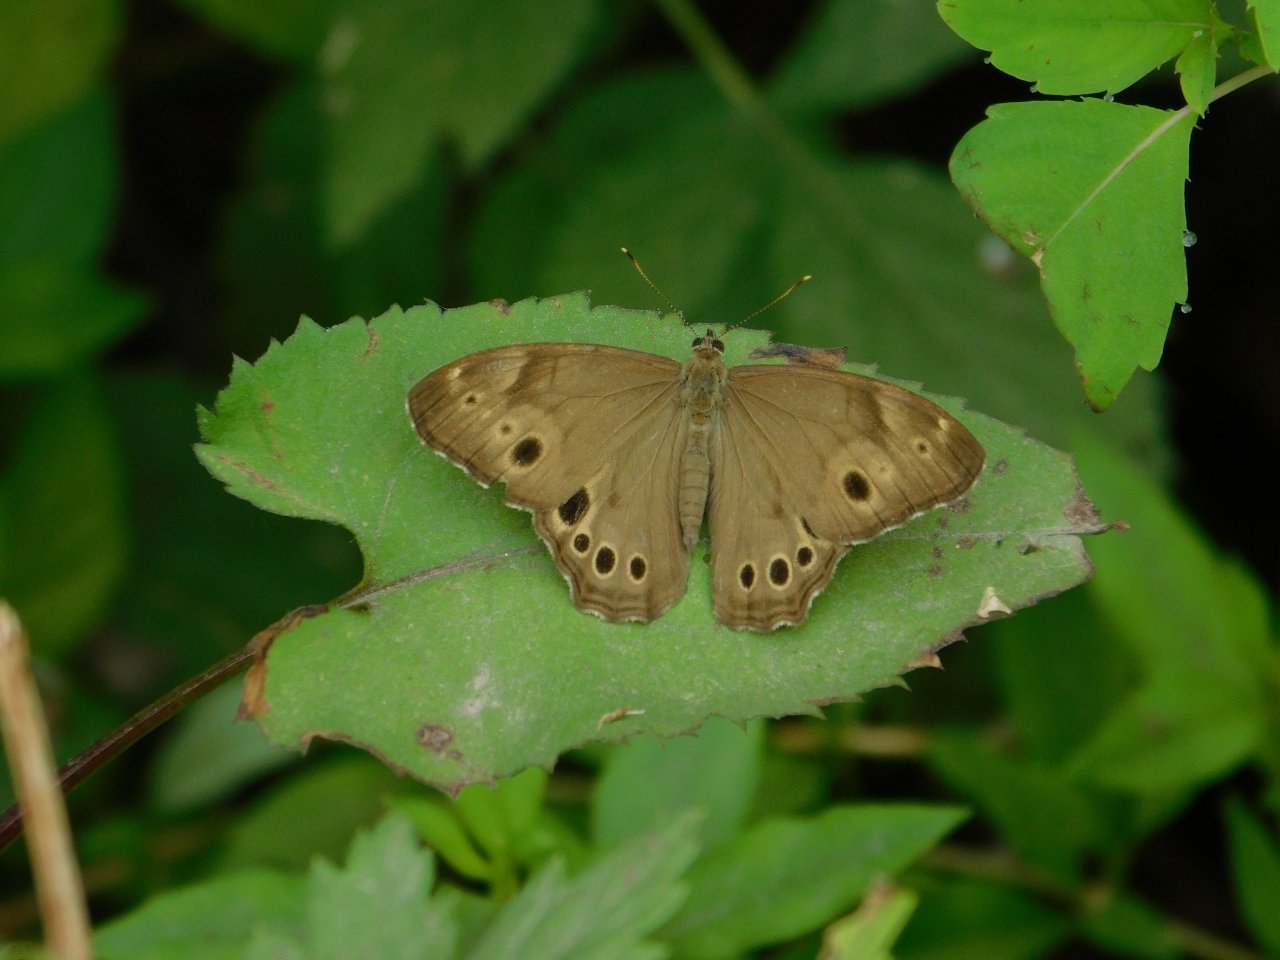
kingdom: Animalia
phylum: Arthropoda
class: Insecta
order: Lepidoptera
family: Nymphalidae
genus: Lethe
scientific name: Lethe anthedon
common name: Northern Pearly-Eye
